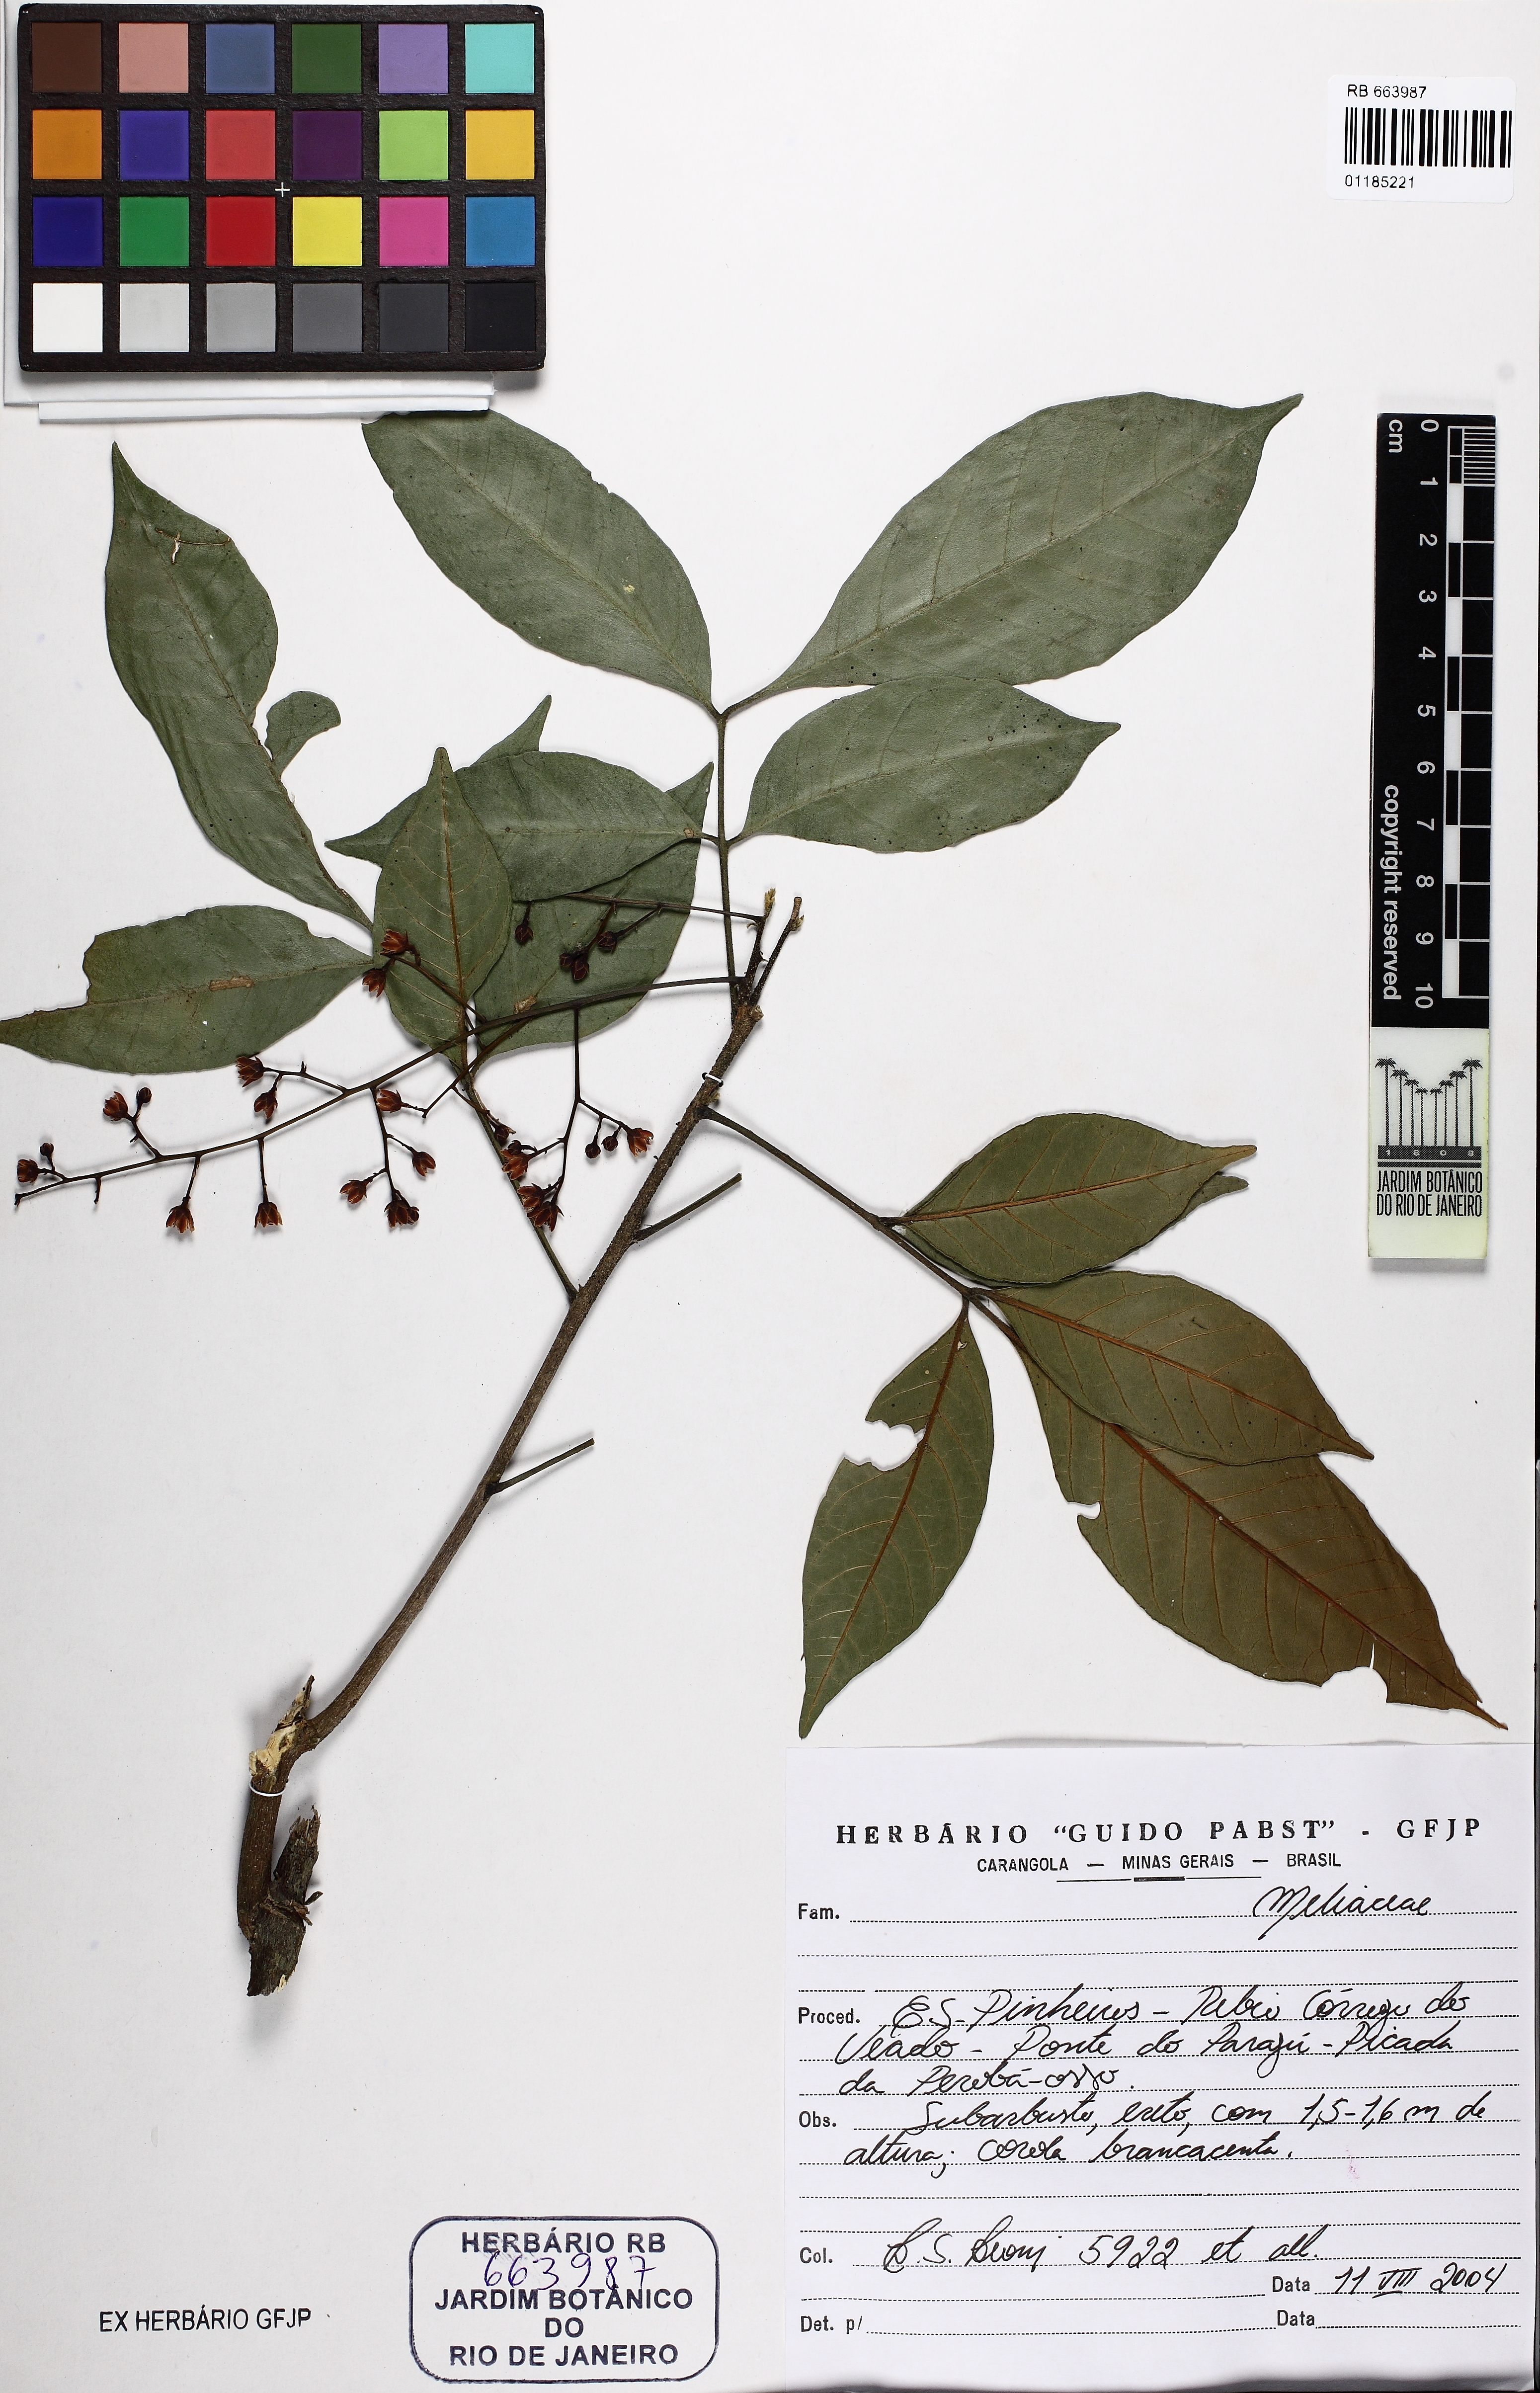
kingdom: Plantae
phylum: Tracheophyta
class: Magnoliopsida
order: Sapindales
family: Meliaceae
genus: Trichilia
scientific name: Trichilia
